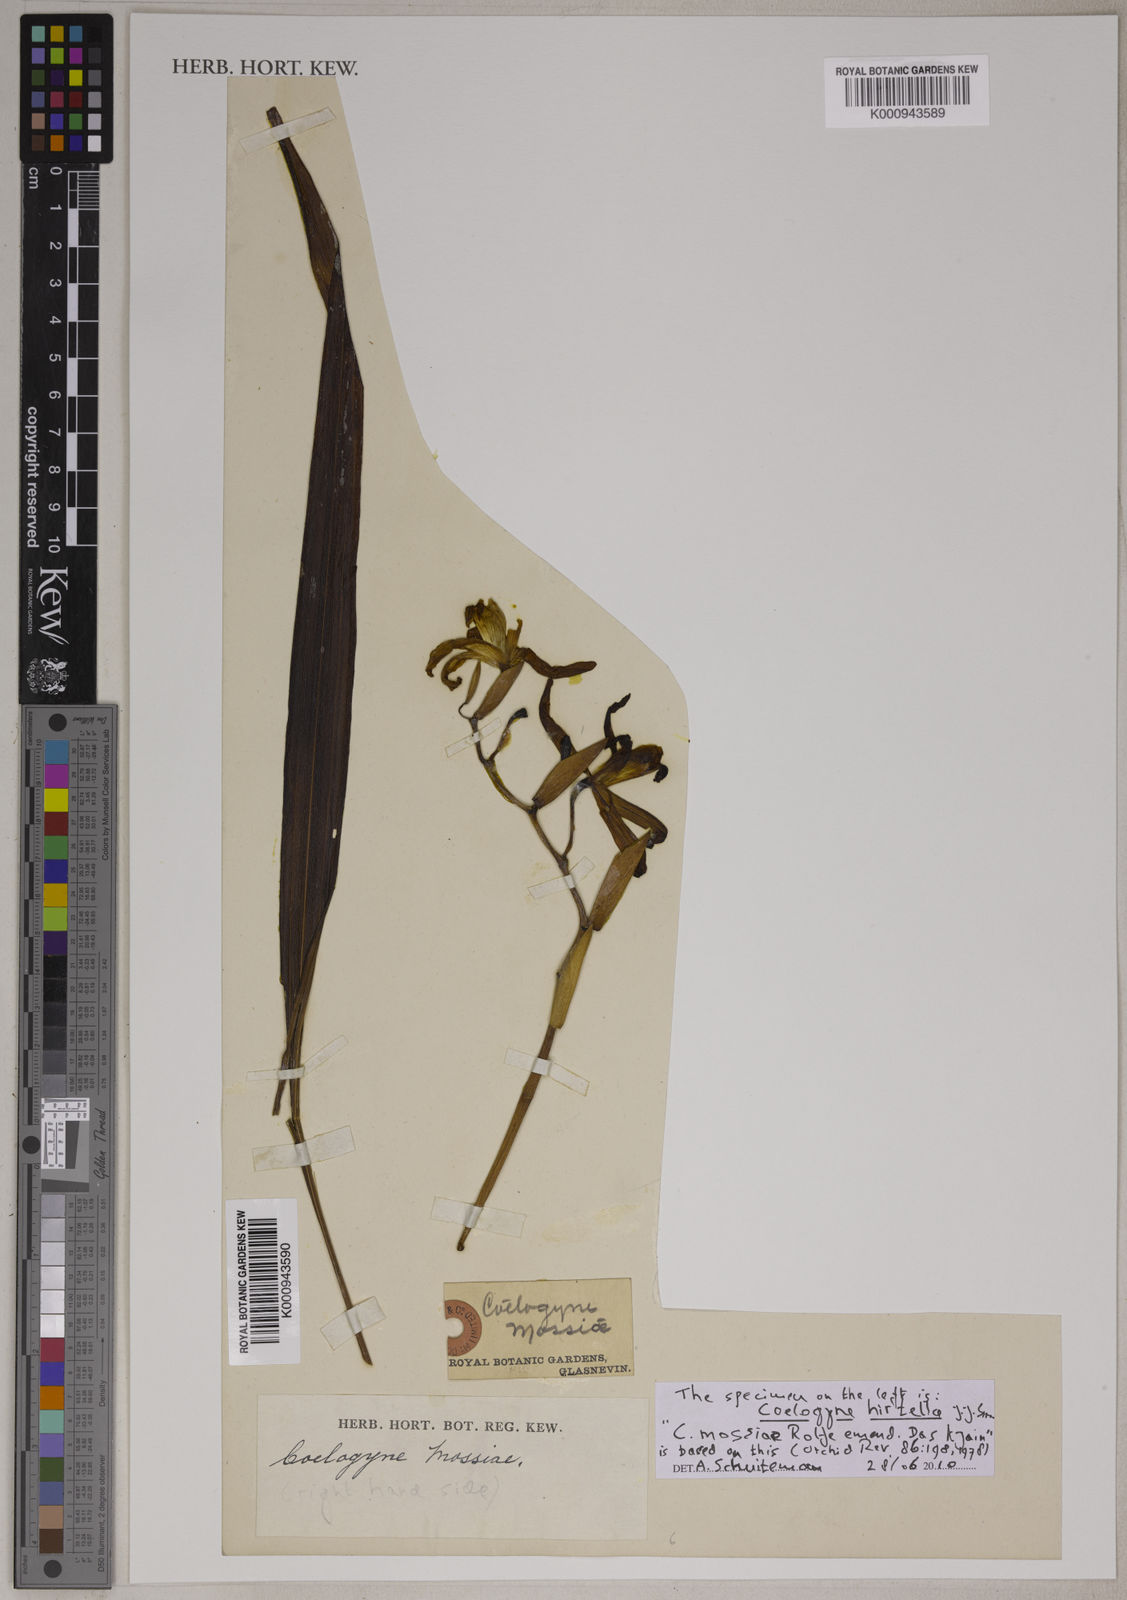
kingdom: Plantae
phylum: Tracheophyta
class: Liliopsida
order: Asparagales
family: Orchidaceae
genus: Coelogyne
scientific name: Coelogyne mossiae
